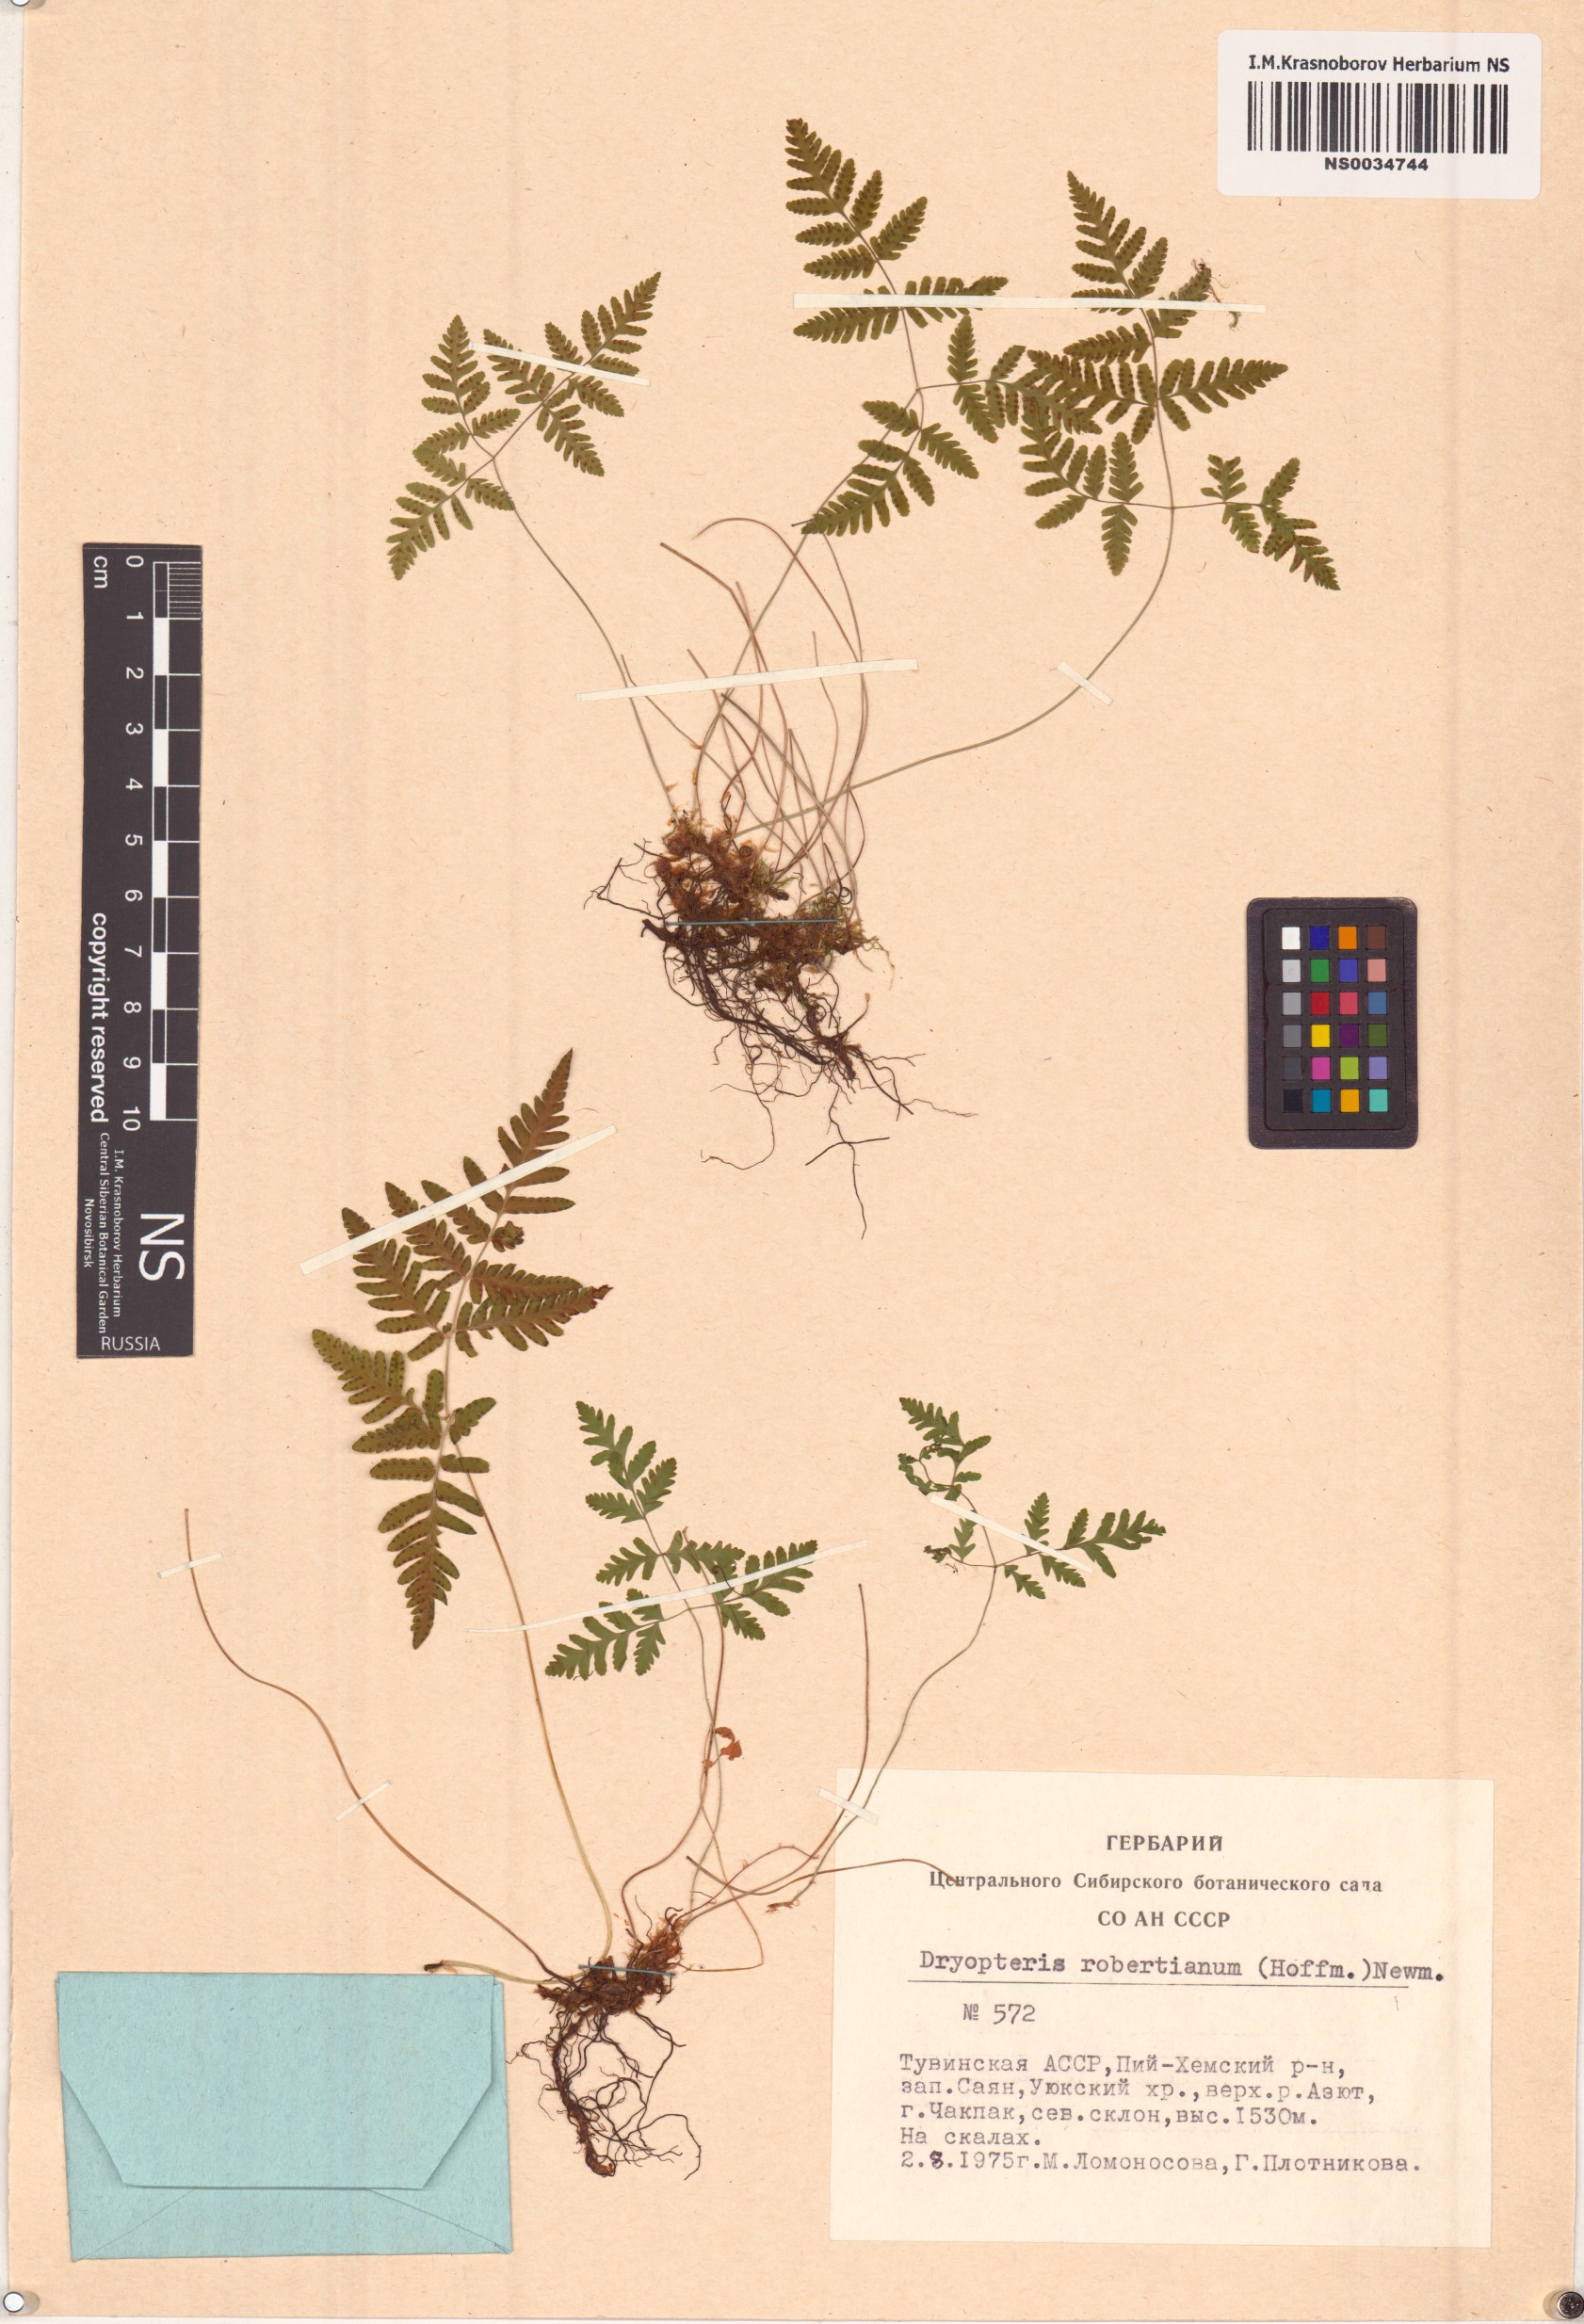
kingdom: Plantae
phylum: Tracheophyta
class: Polypodiopsida
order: Polypodiales
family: Cystopteridaceae
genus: Gymnocarpium
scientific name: Gymnocarpium robertianum
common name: Limestone fern
